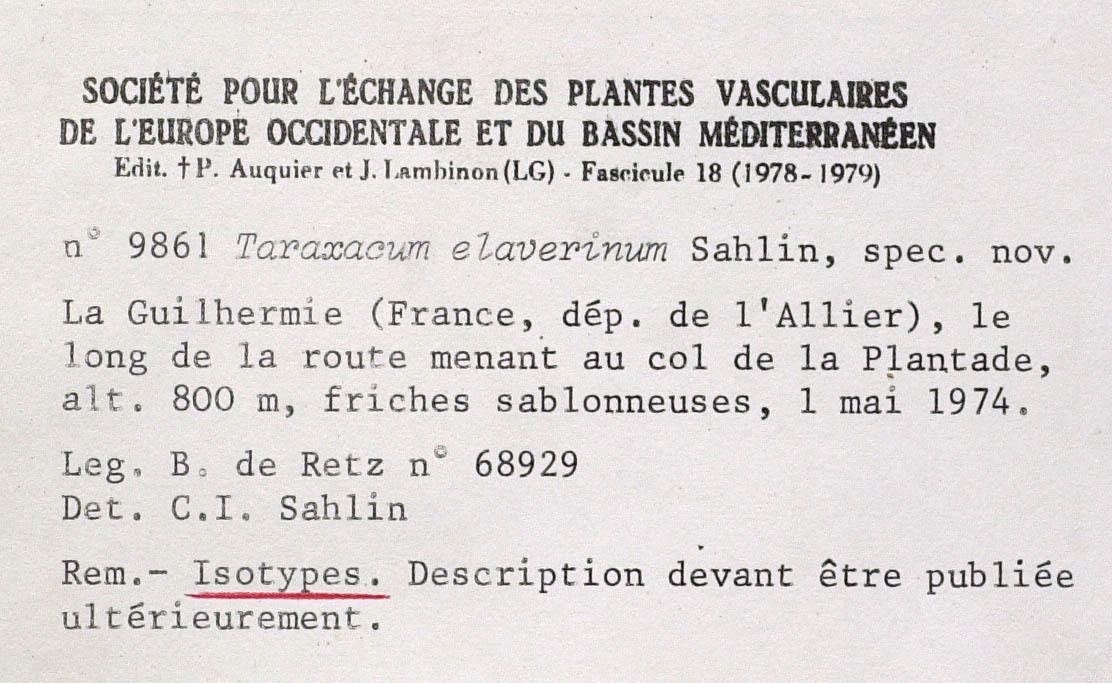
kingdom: Plantae
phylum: Tracheophyta
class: Magnoliopsida
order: Asterales
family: Asteraceae
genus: Taraxacum
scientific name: Taraxacum elaverinum
